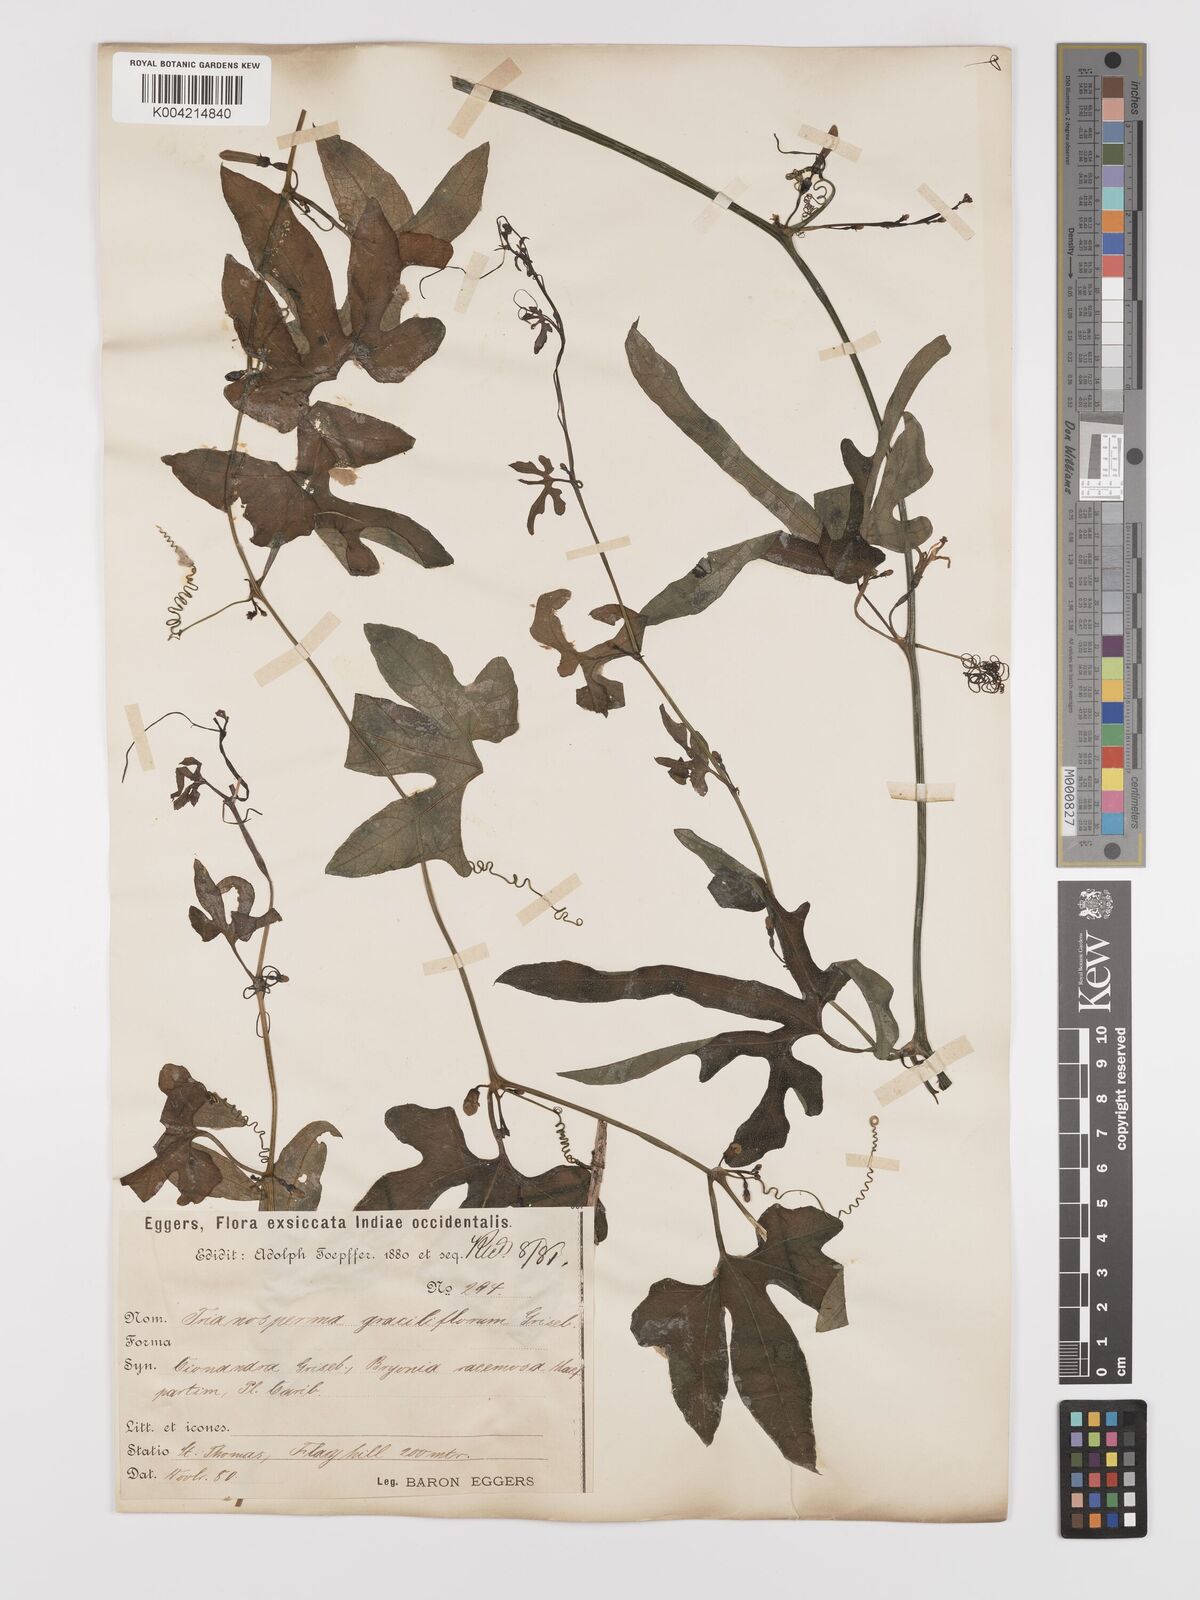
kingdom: Plantae
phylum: Tracheophyta
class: Magnoliopsida
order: Cucurbitales
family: Cucurbitaceae
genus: Cayaponia
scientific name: Cayaponia americana
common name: American melonleaf
